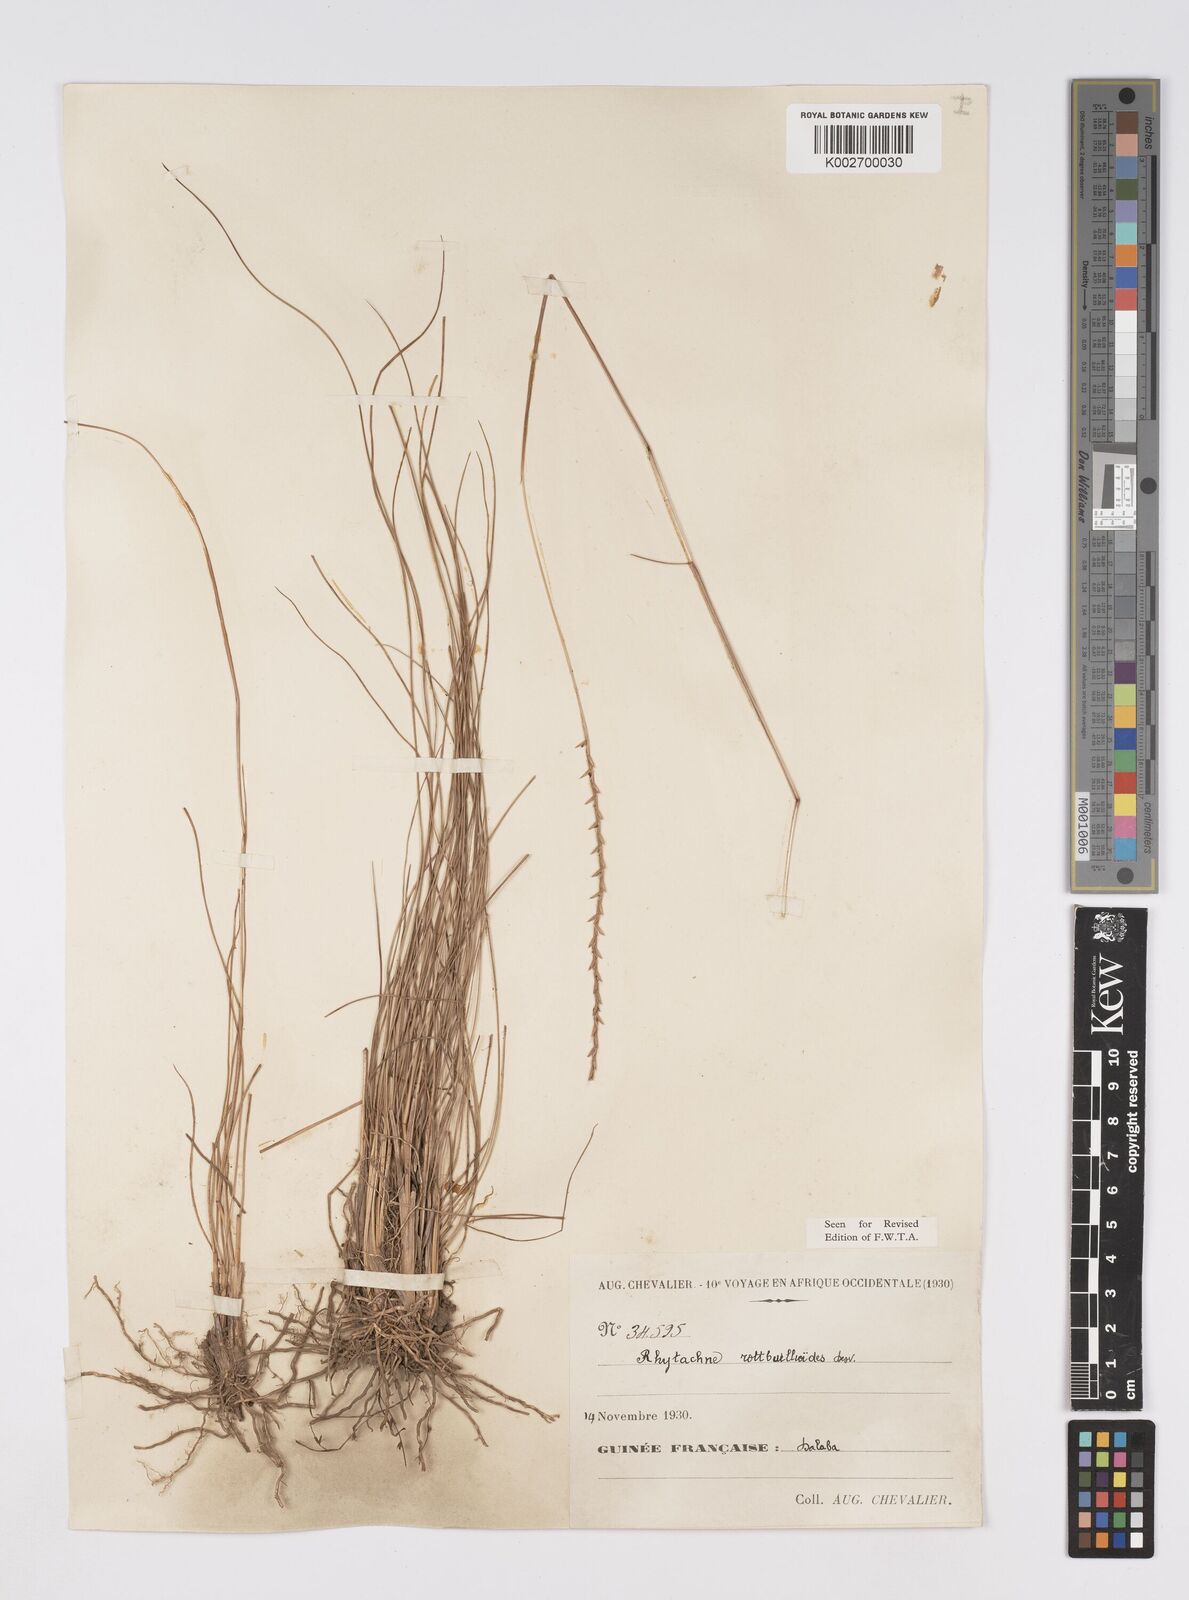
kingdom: Plantae
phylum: Tracheophyta
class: Liliopsida
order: Poales
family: Poaceae
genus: Rhytachne
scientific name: Rhytachne rottboellioides
